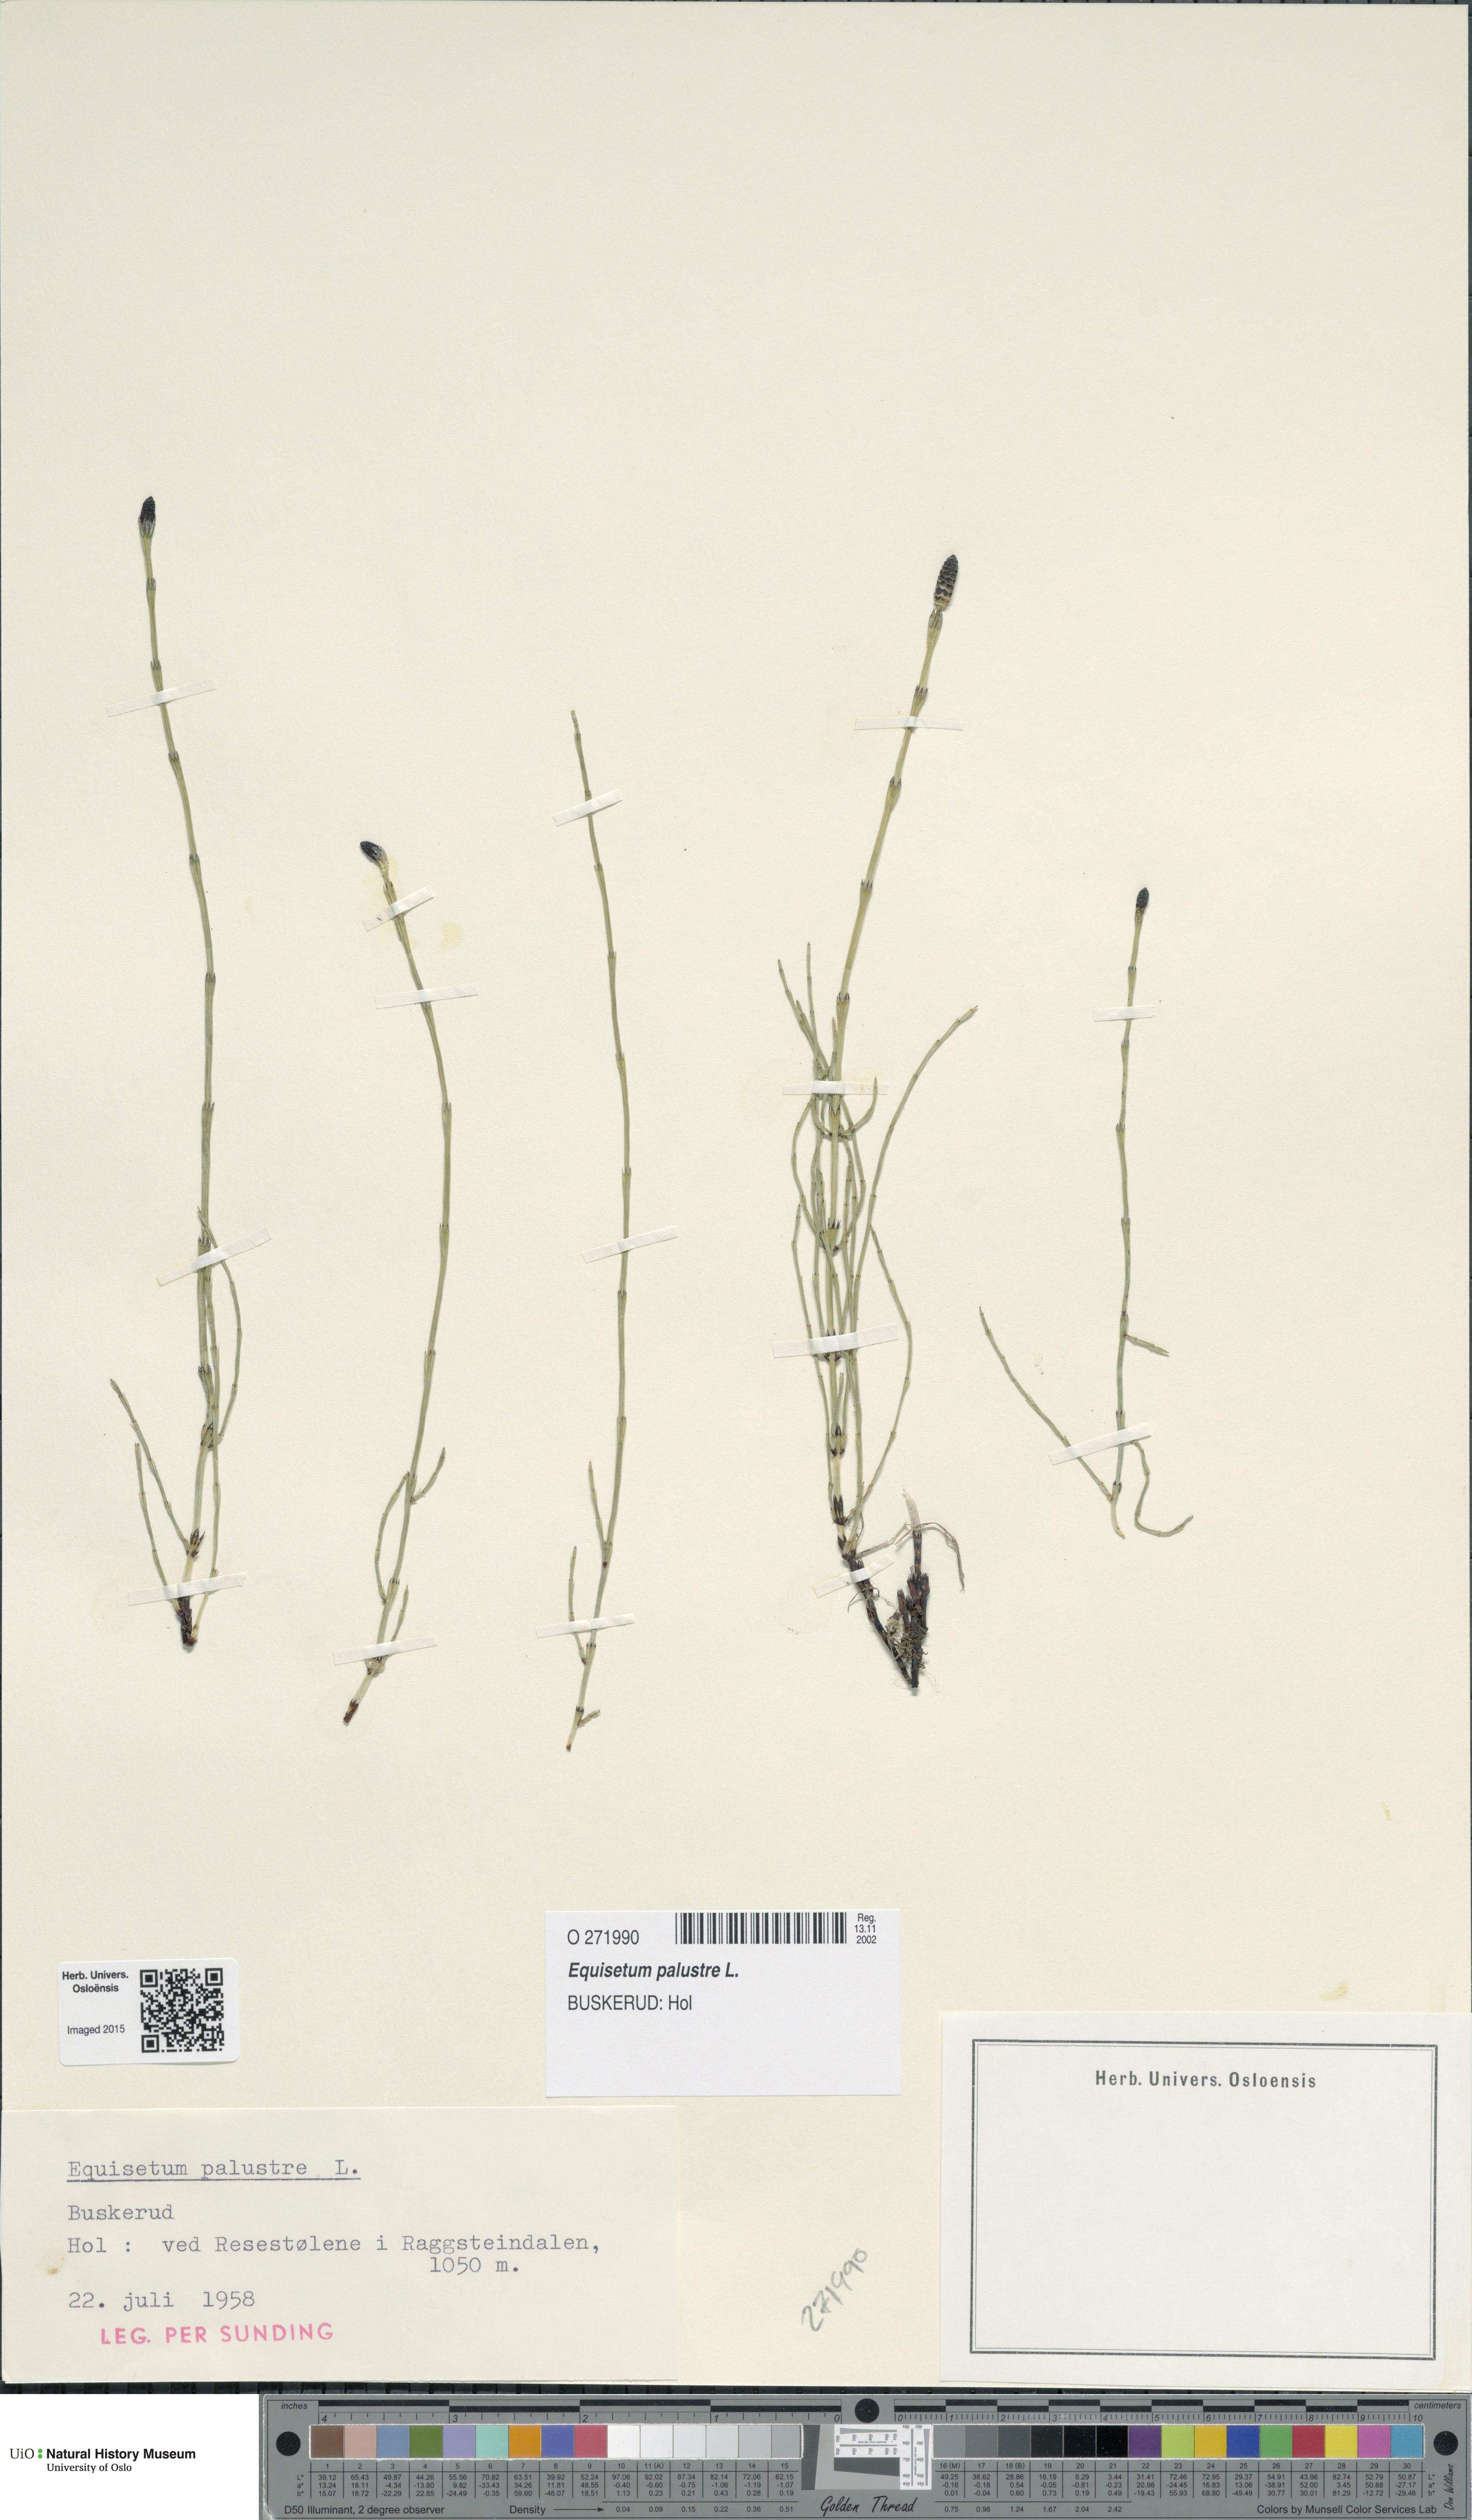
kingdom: Plantae
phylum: Tracheophyta
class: Polypodiopsida
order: Equisetales
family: Equisetaceae
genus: Equisetum
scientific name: Equisetum palustre
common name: Marsh horsetail
